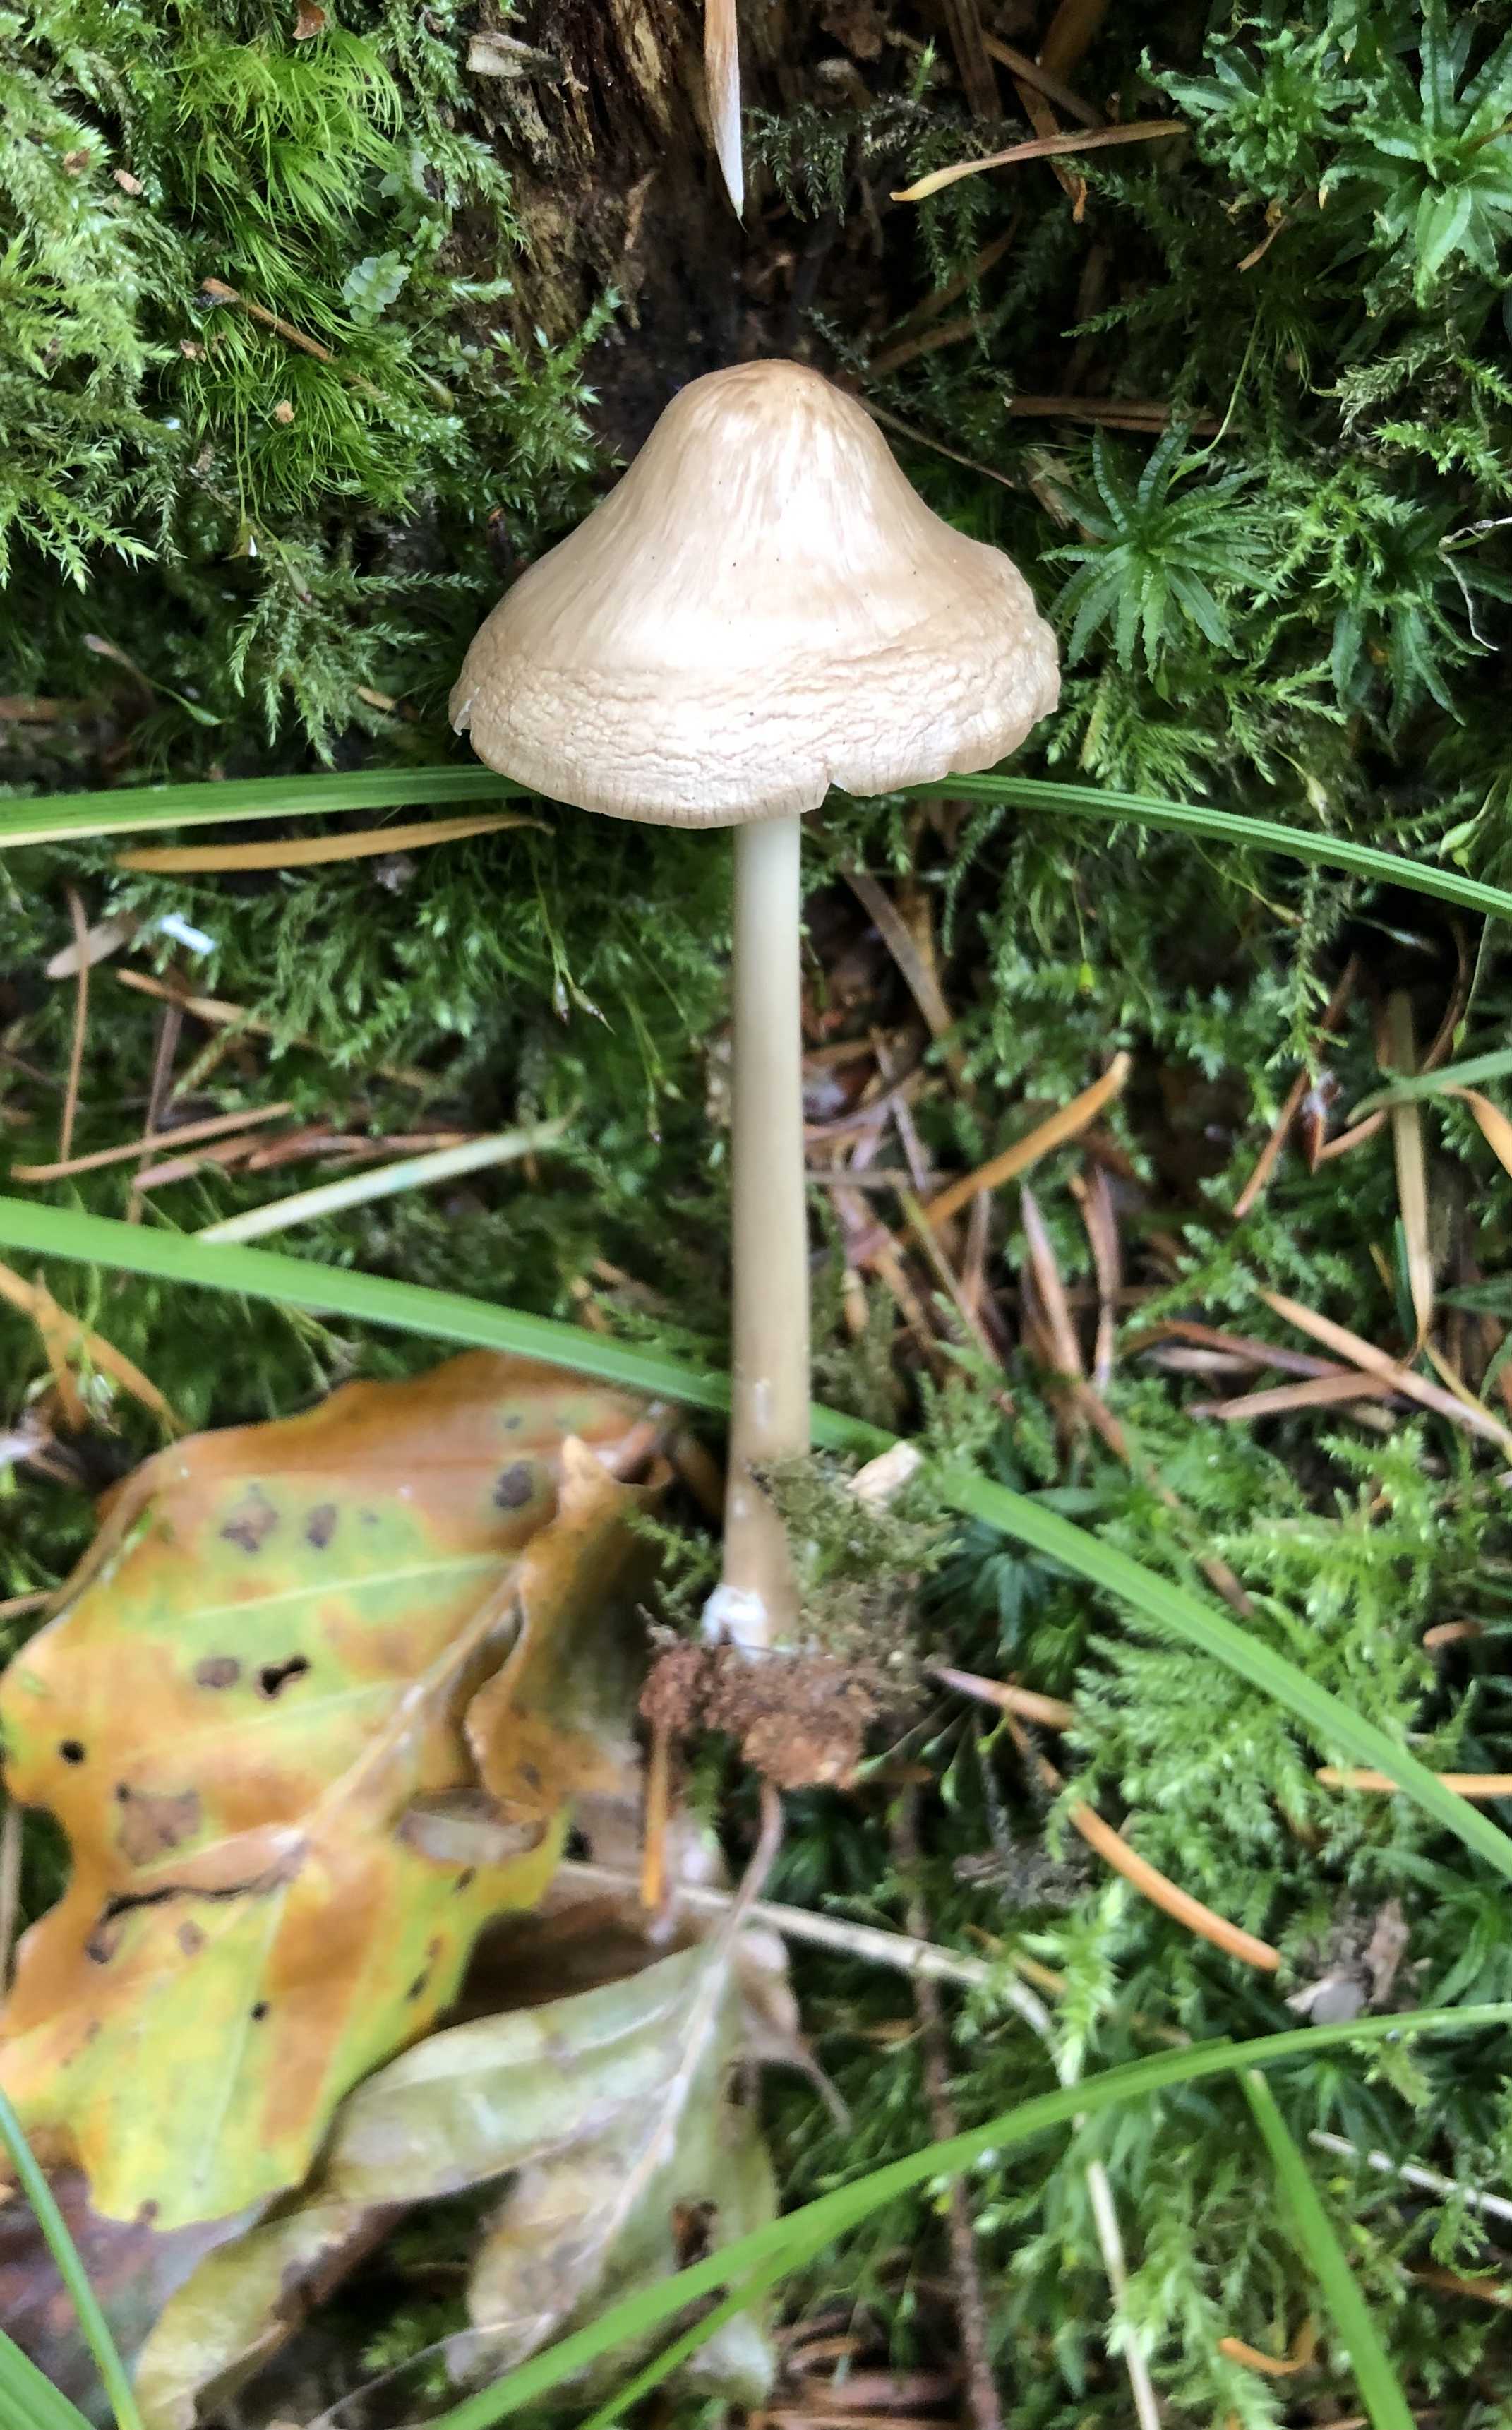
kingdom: Fungi
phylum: Basidiomycota
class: Agaricomycetes
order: Agaricales
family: Mycenaceae
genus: Mycena
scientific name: Mycena galericulata
